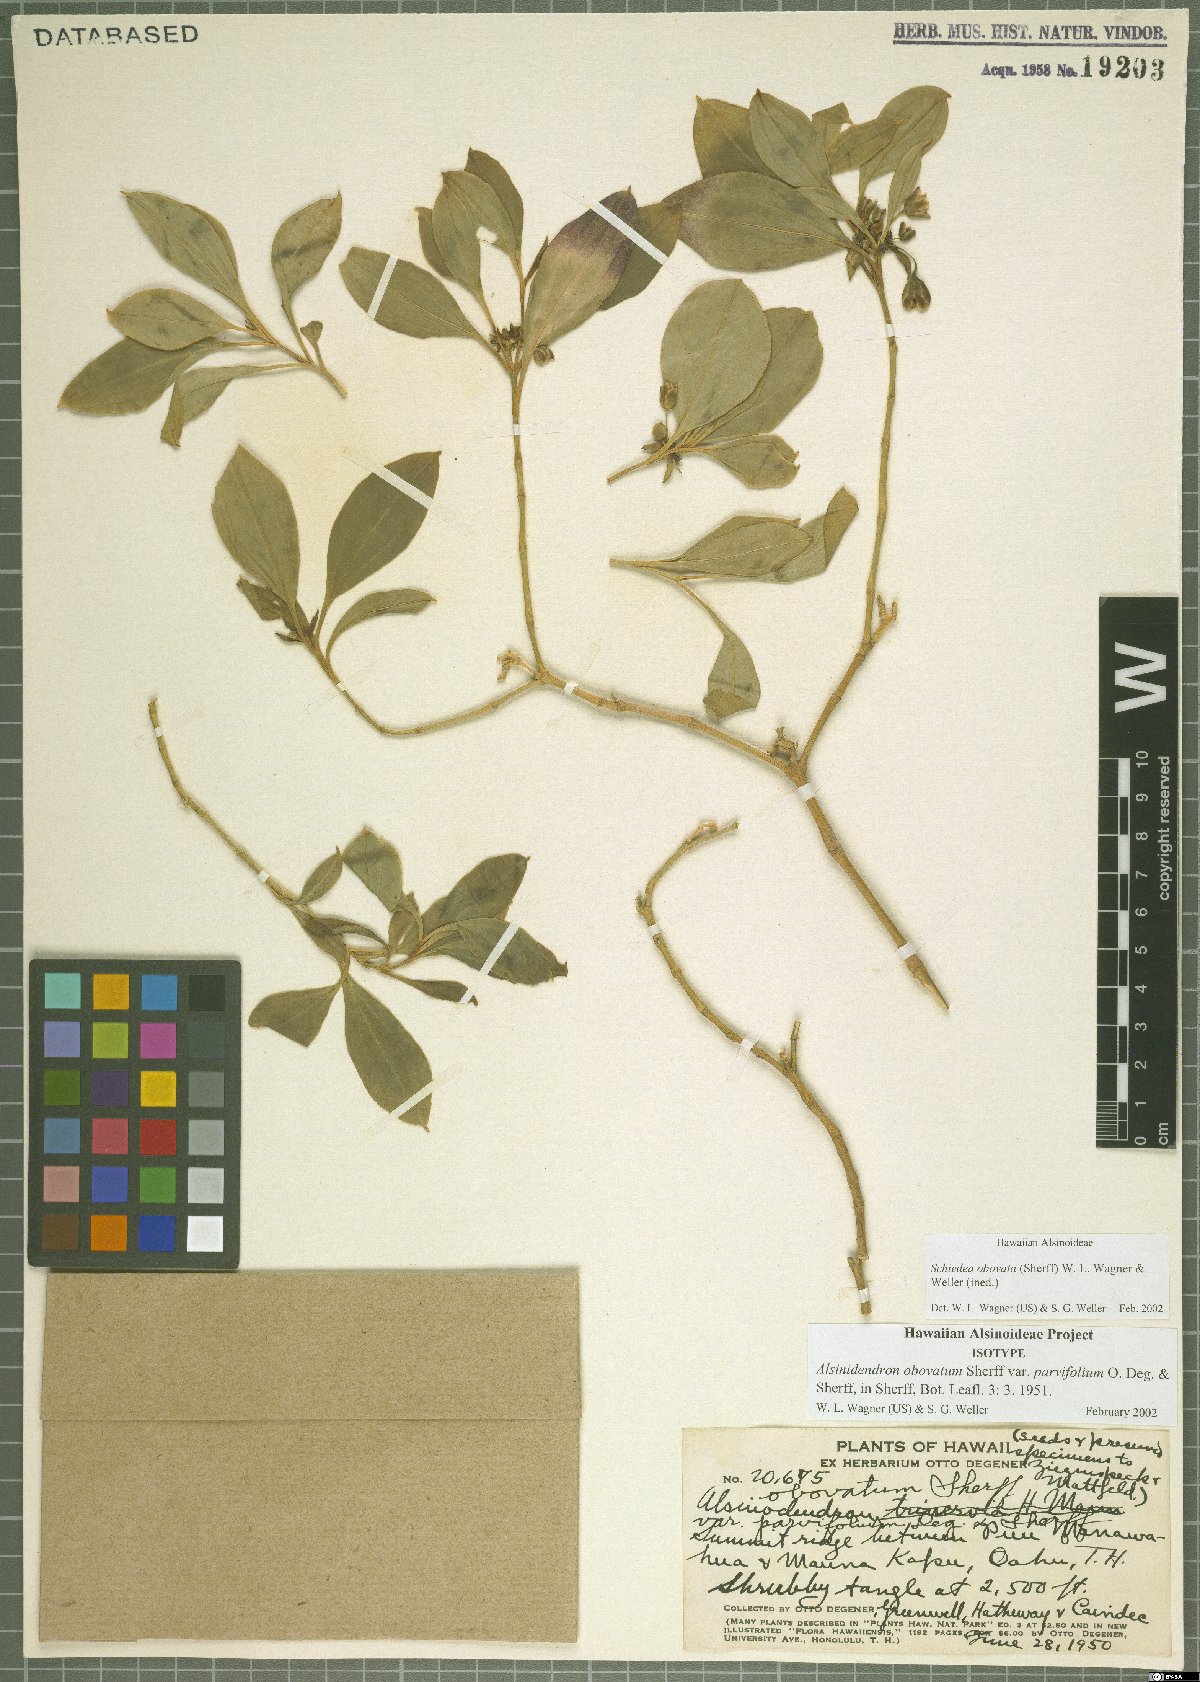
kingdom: Plantae
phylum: Tracheophyta
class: Magnoliopsida
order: Caryophyllales
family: Caryophyllaceae
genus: Schiedea
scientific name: Schiedea obovata
